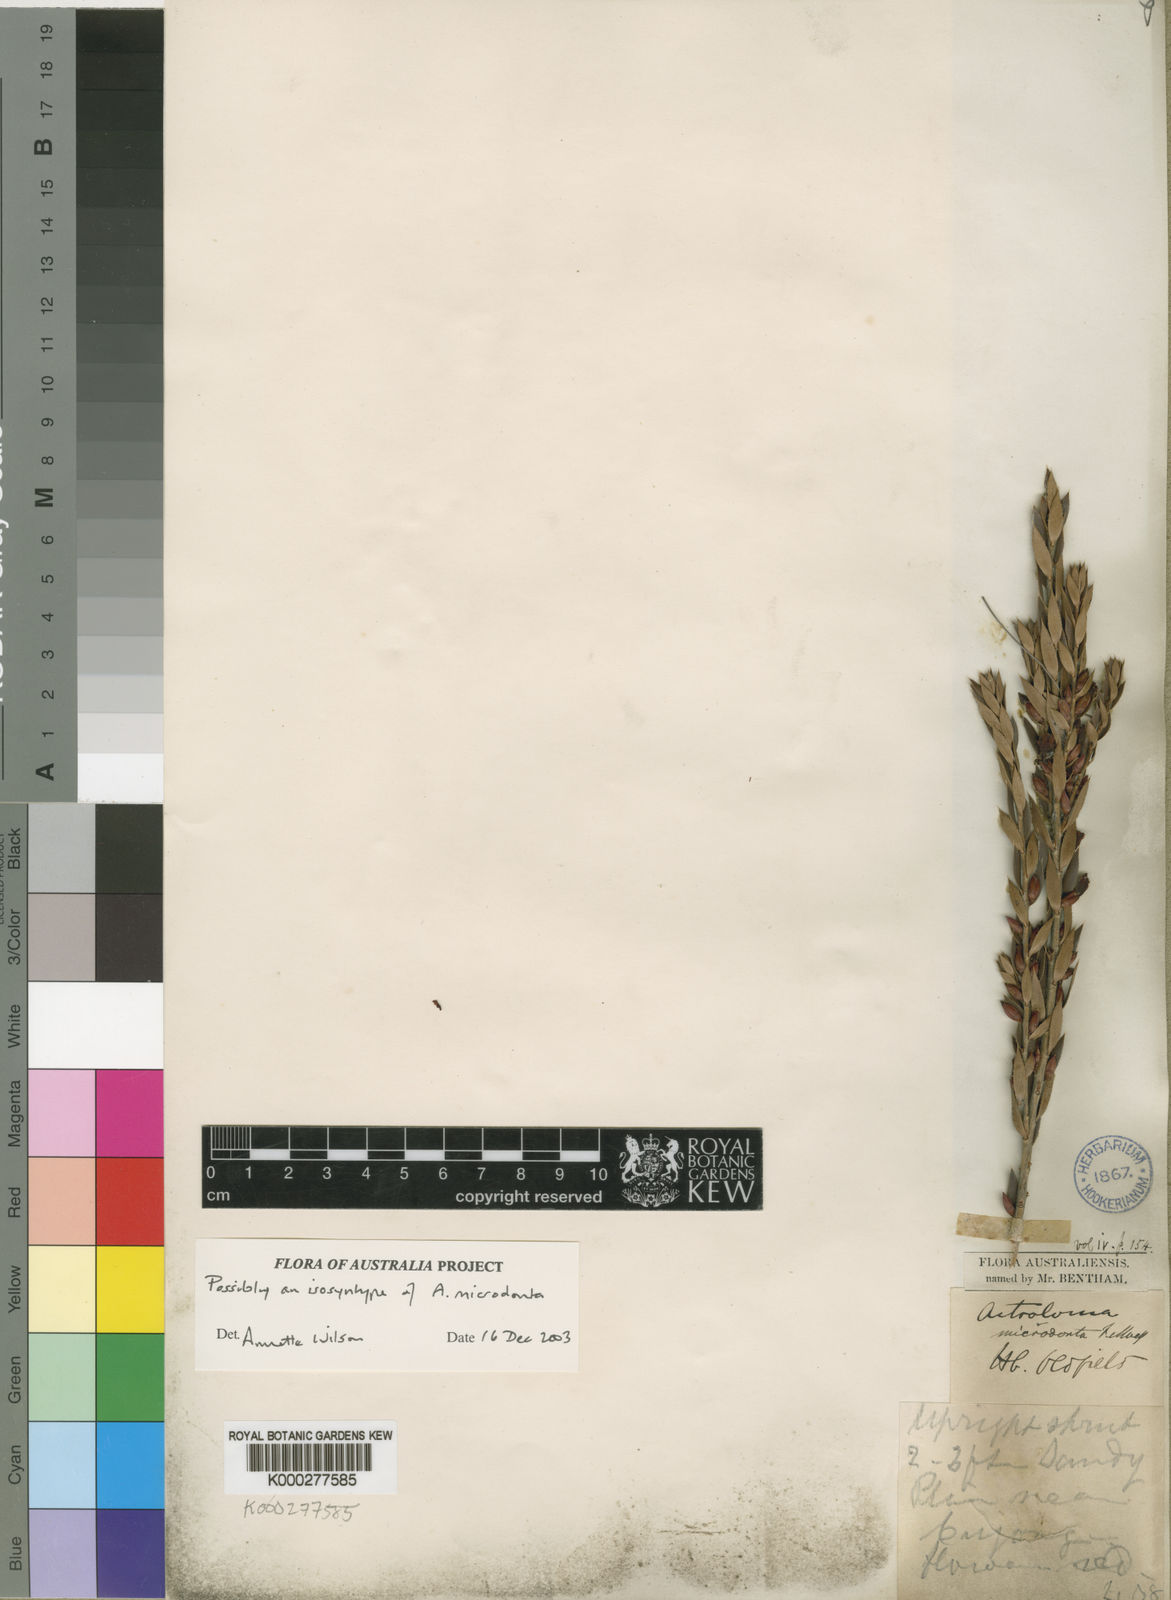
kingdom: Plantae
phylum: Tracheophyta
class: Magnoliopsida
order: Ericales
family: Ericaceae
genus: Styphelia
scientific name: Styphelia microdonta
